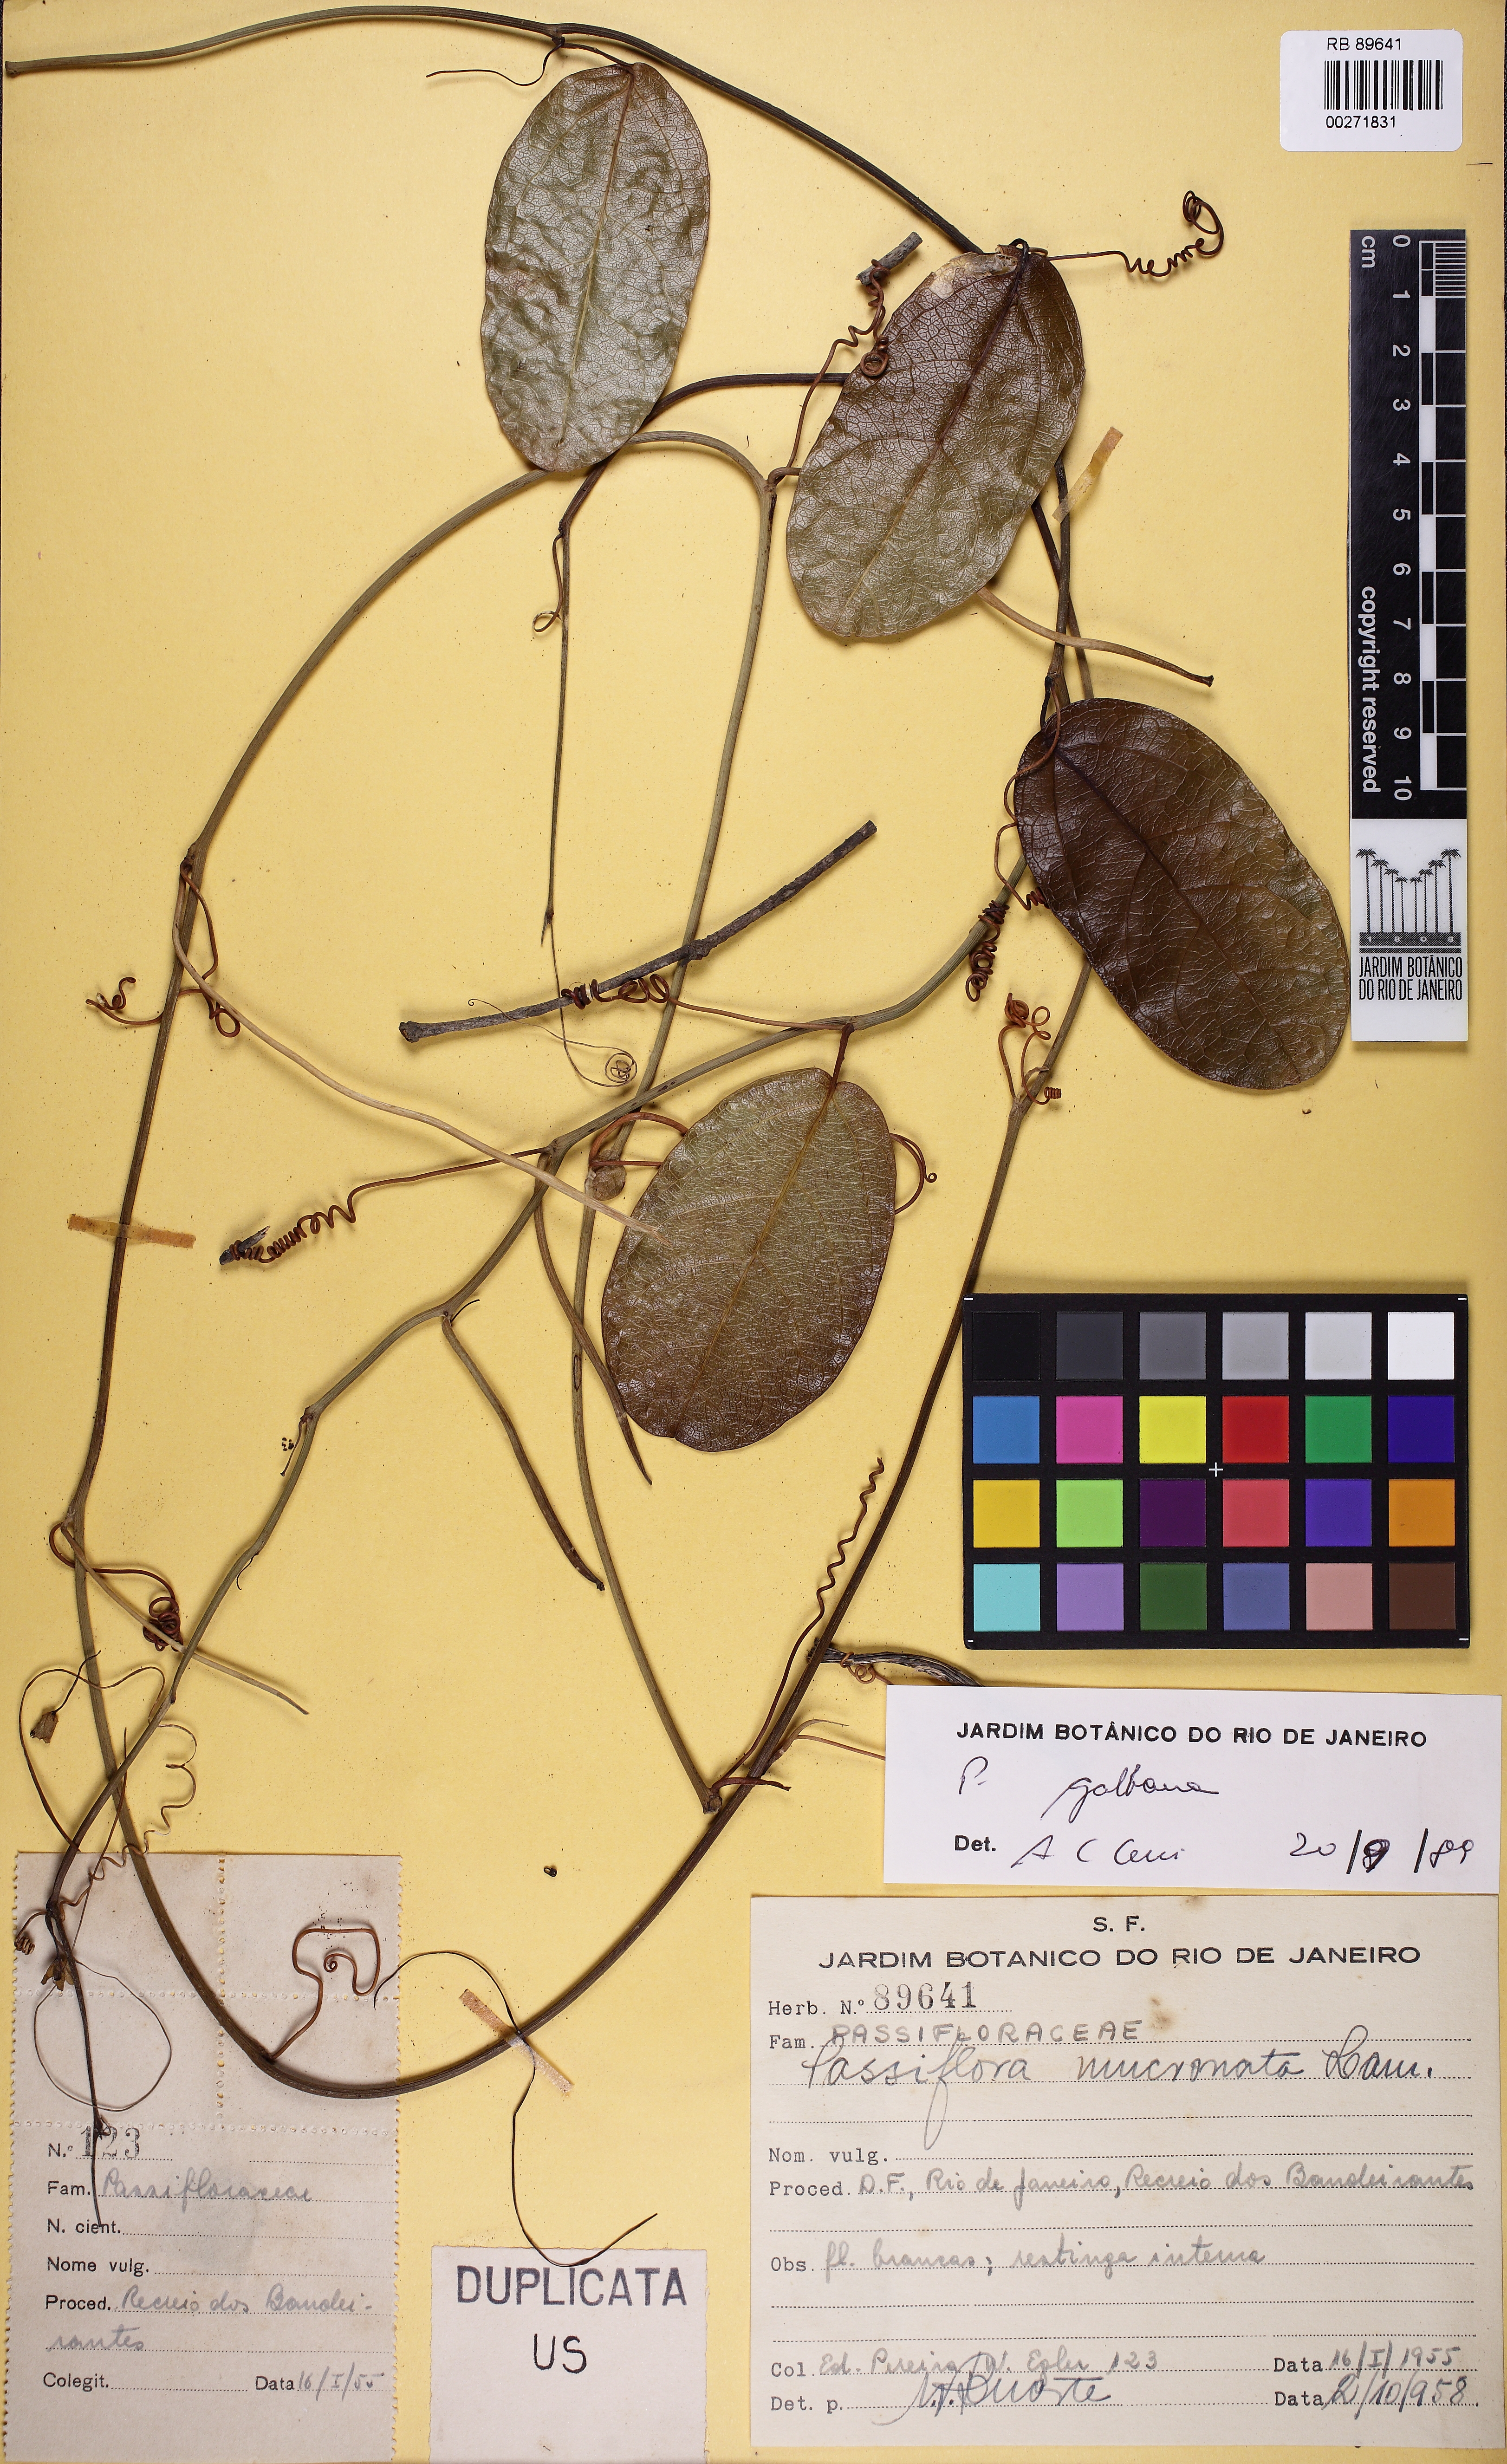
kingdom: Plantae
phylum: Tracheophyta
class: Magnoliopsida
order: Malpighiales
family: Passifloraceae
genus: Passiflora
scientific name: Passiflora silvestris
